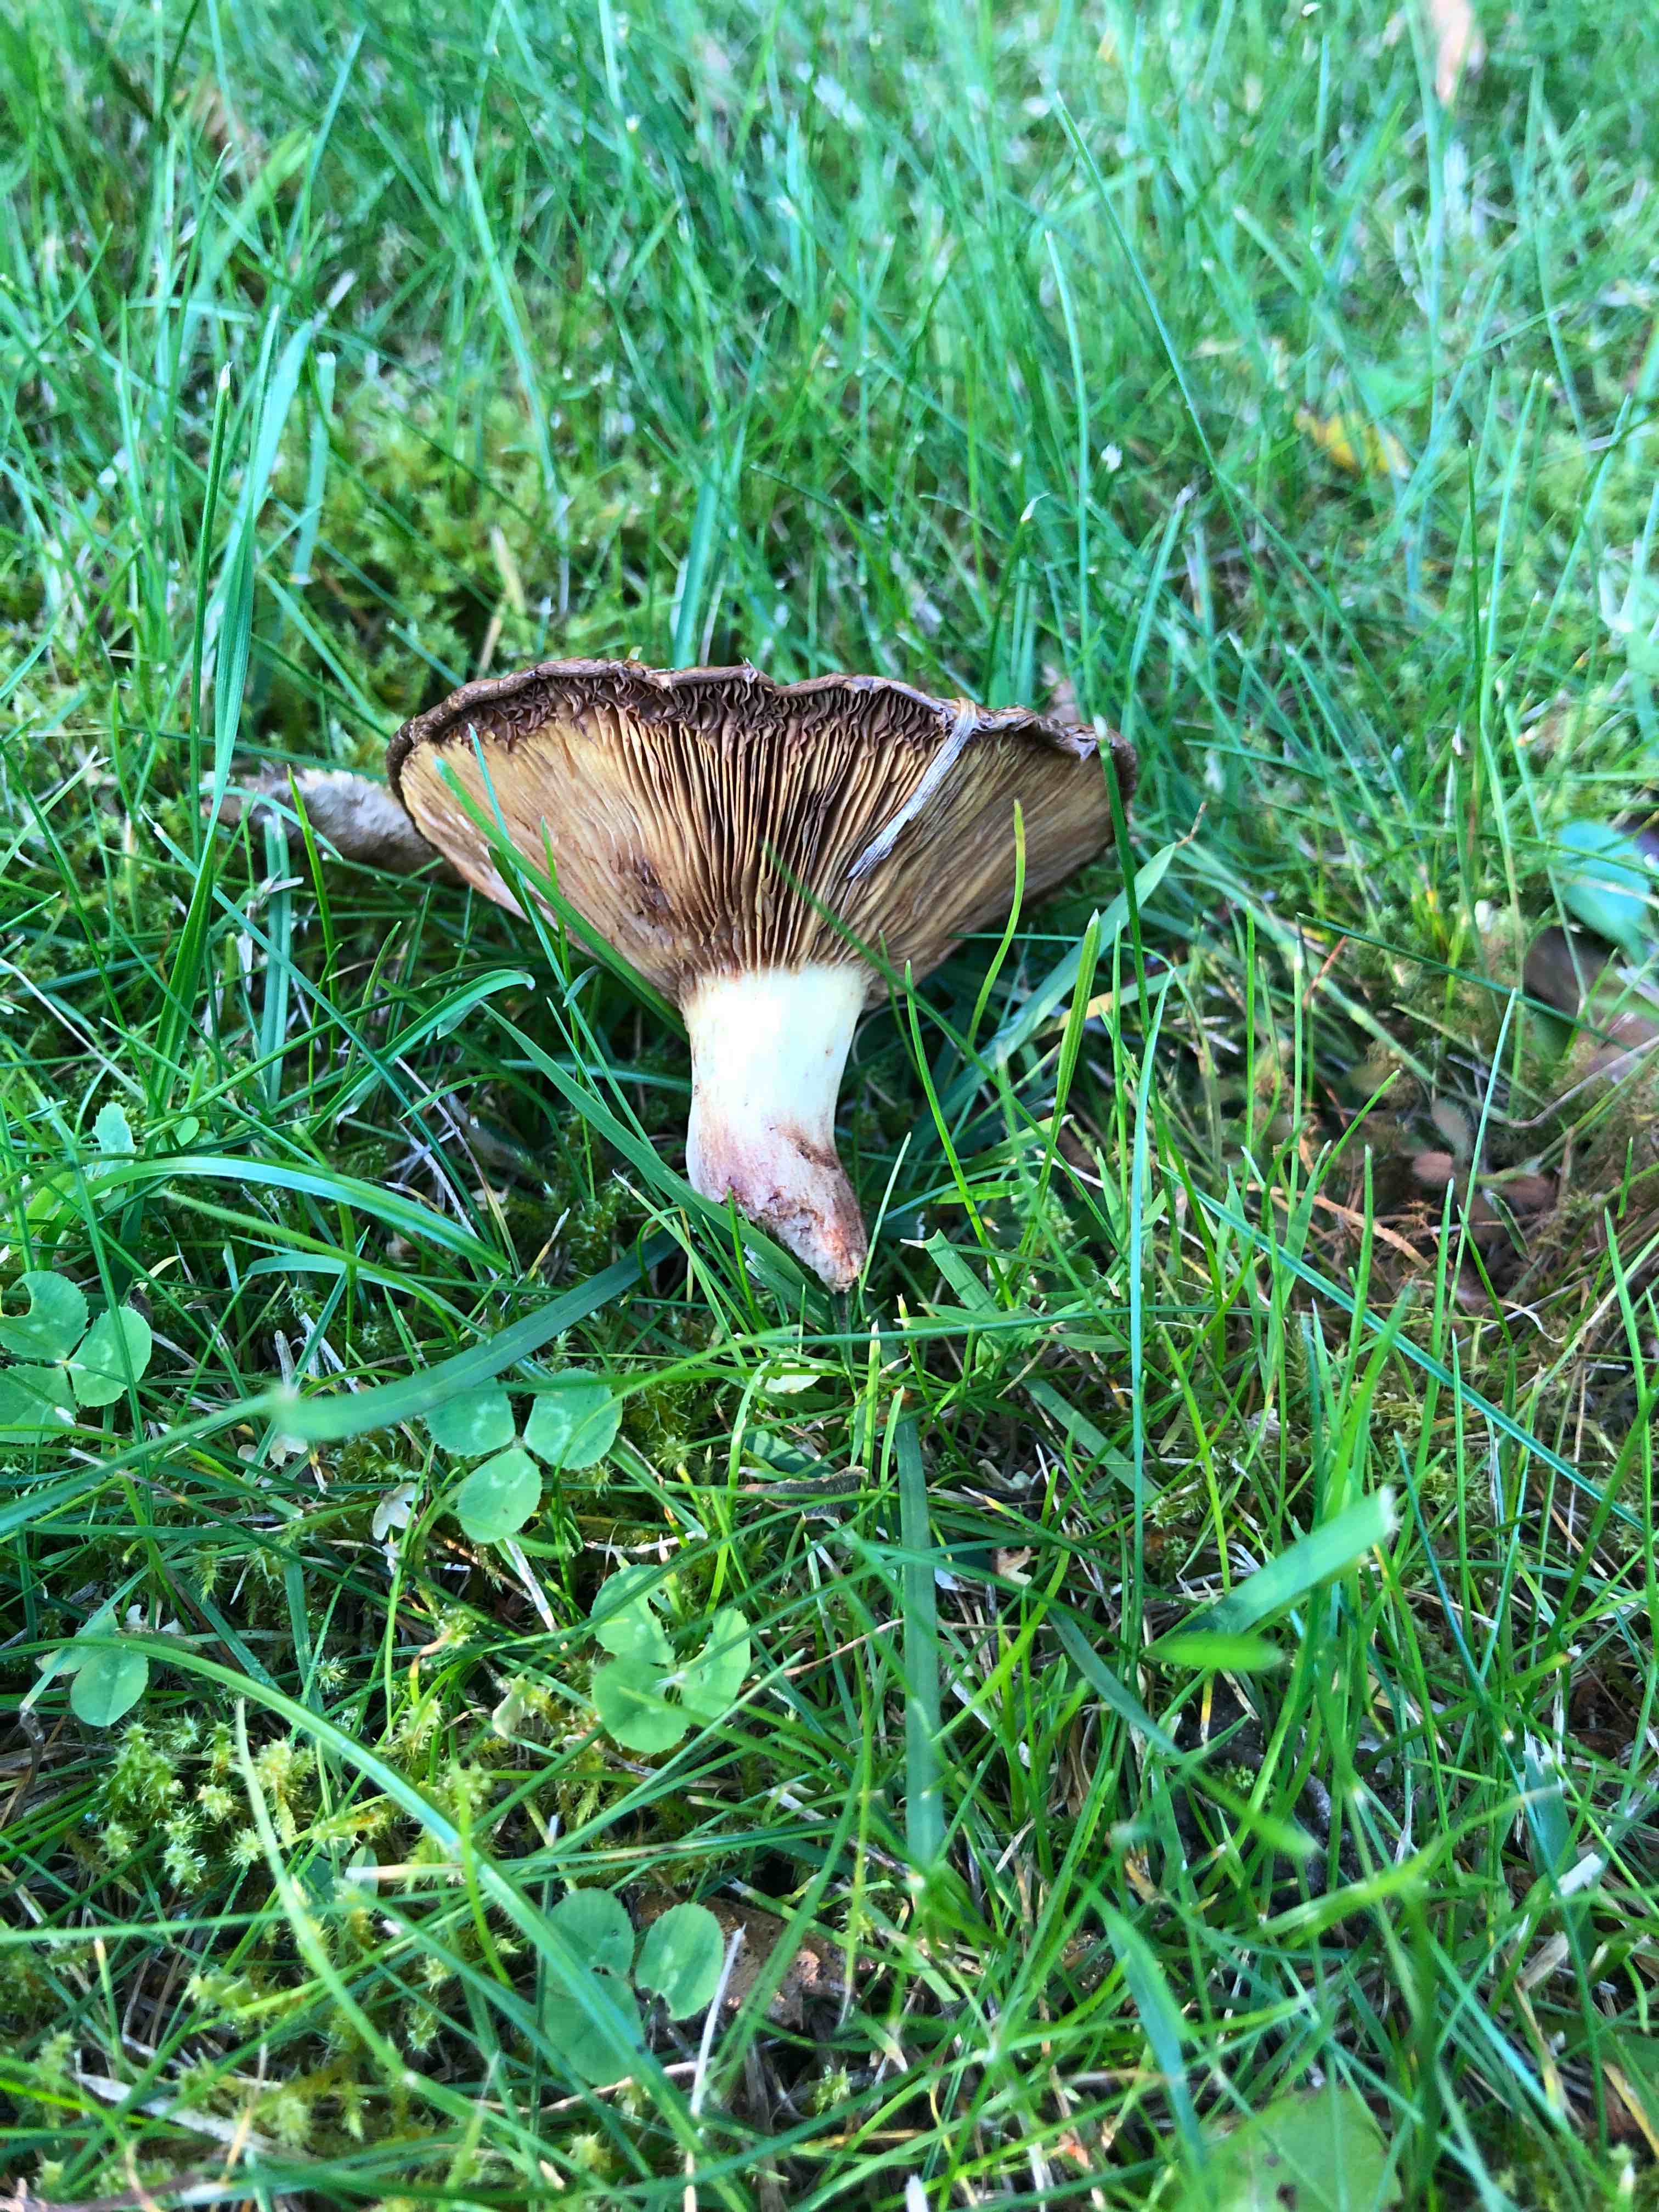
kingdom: Fungi
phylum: Basidiomycota
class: Agaricomycetes
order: Boletales
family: Paxillaceae
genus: Paxillus
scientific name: Paxillus
